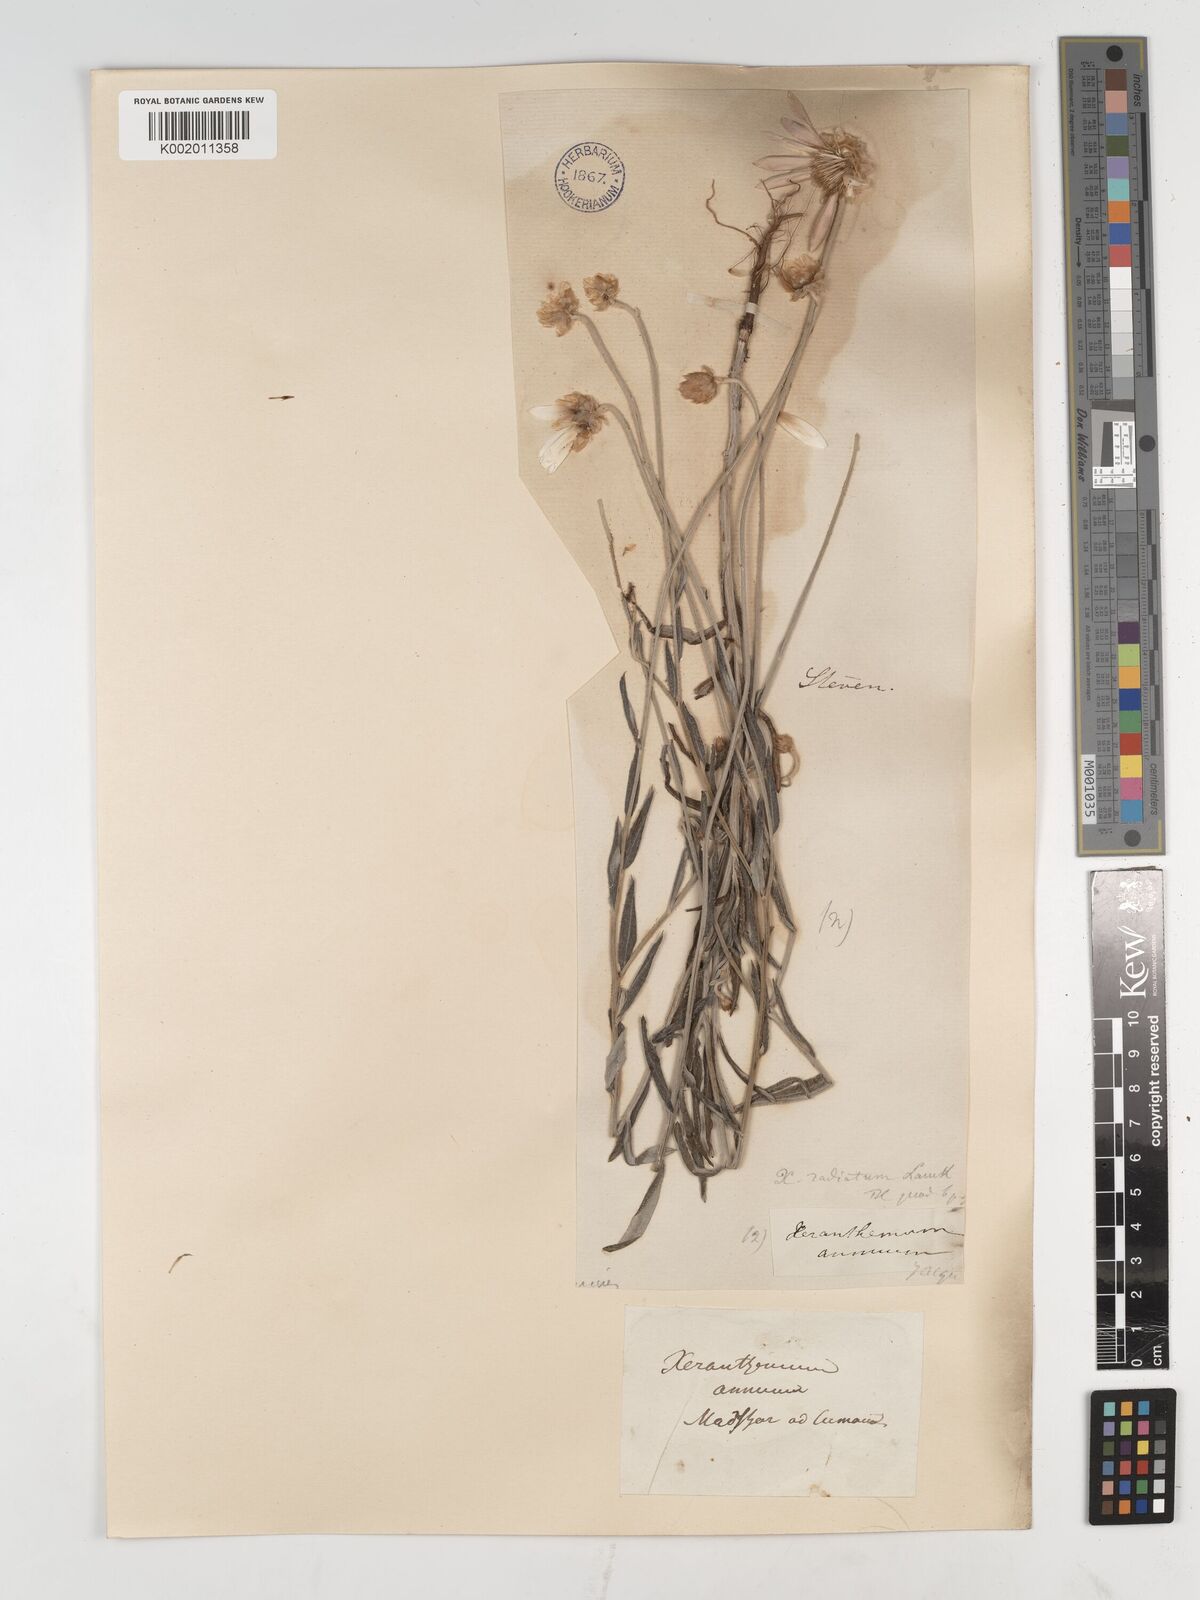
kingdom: Plantae
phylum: Tracheophyta
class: Magnoliopsida
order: Asterales
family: Asteraceae
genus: Xeranthemum
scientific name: Xeranthemum annuum
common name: Immortelle
